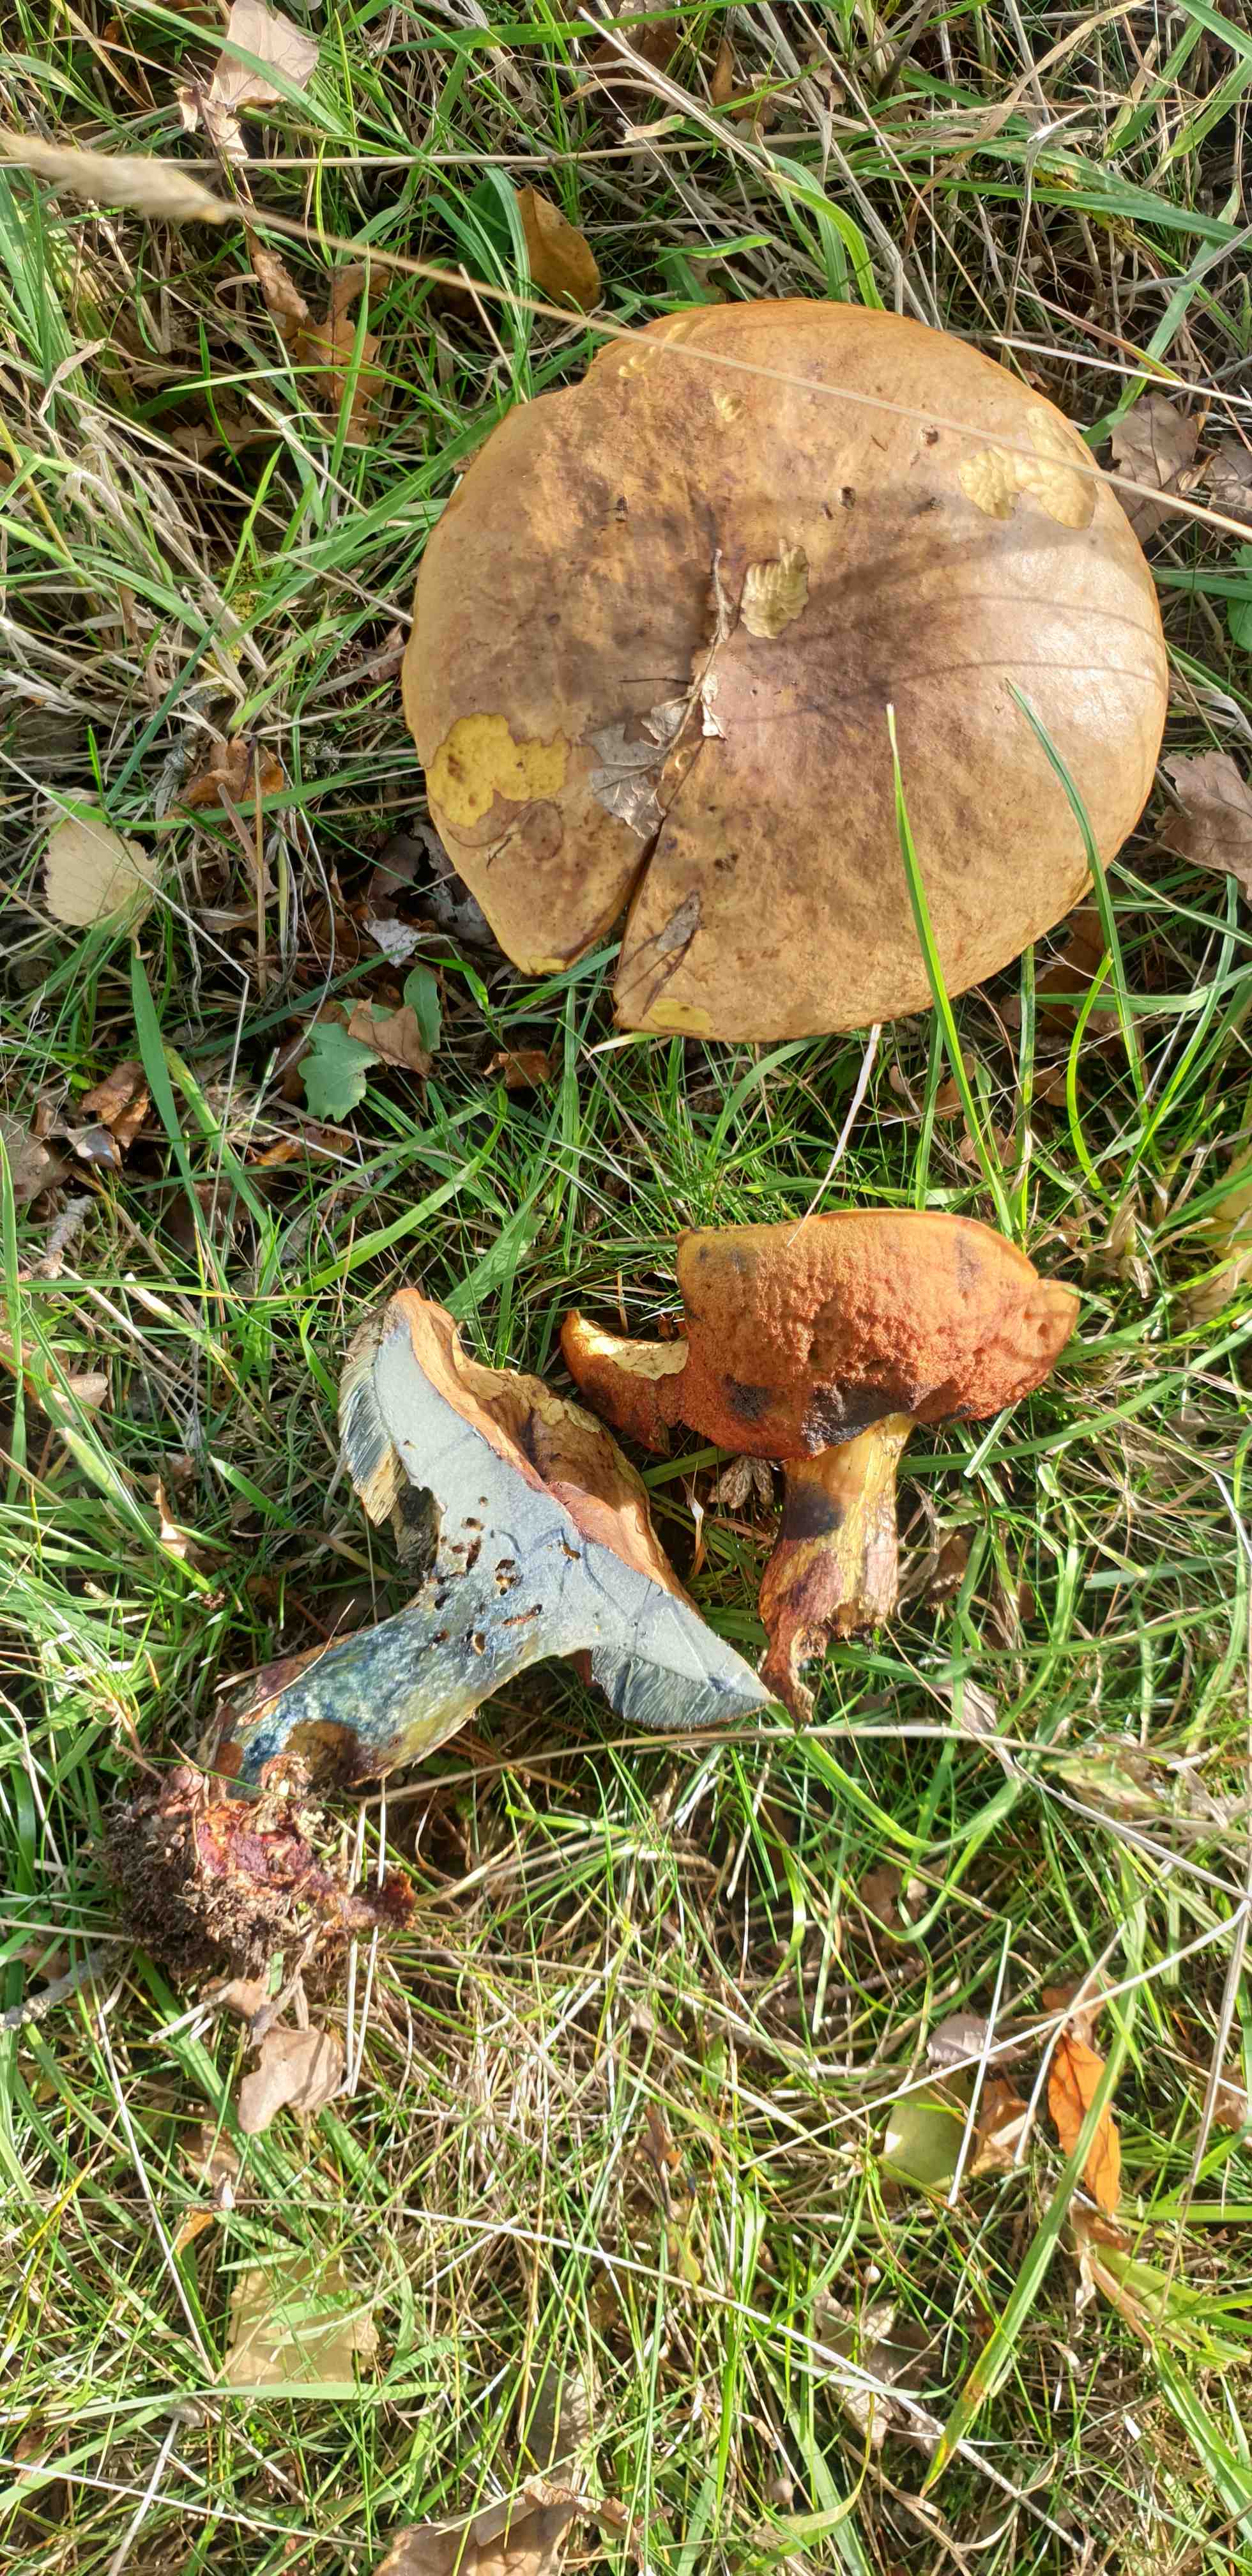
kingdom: Fungi
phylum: Basidiomycota
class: Agaricomycetes
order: Boletales
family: Boletaceae
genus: Neoboletus
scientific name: Neoboletus erythropus
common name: punktstokket indigorørhat
